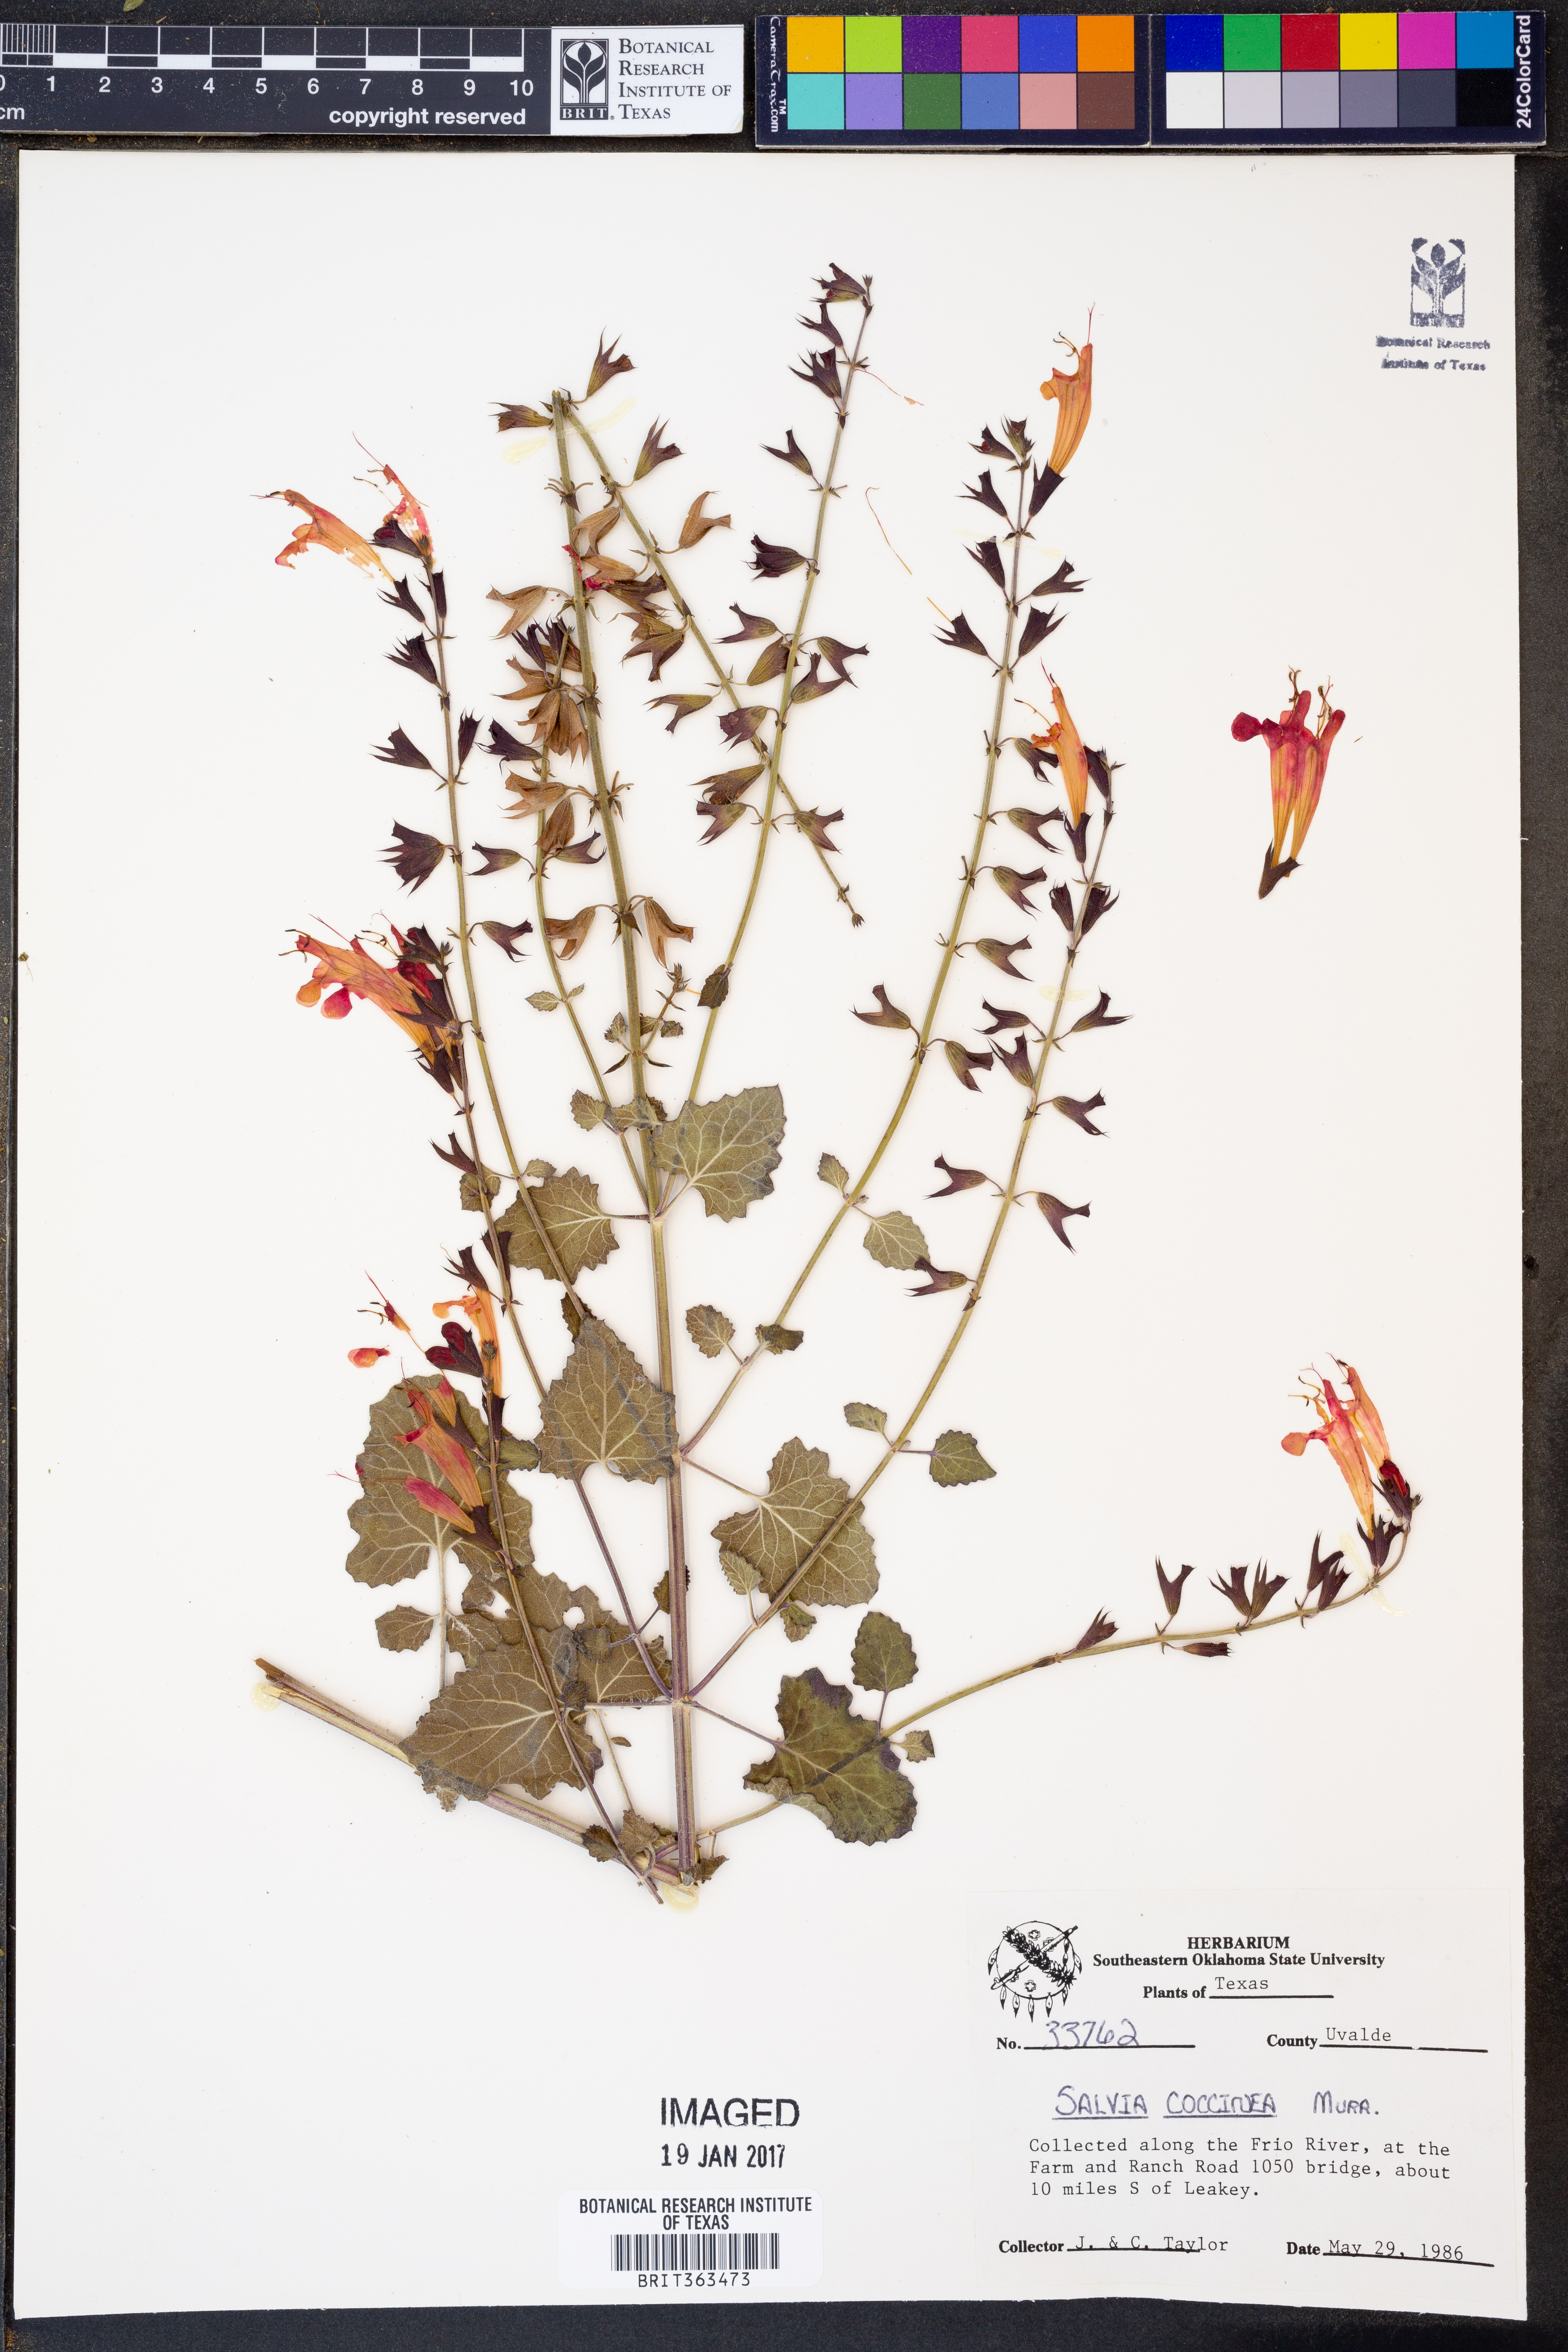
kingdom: Plantae
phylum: Tracheophyta
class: Magnoliopsida
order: Lamiales
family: Lamiaceae
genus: Salvia
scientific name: Salvia coccinea
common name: Blood sage
